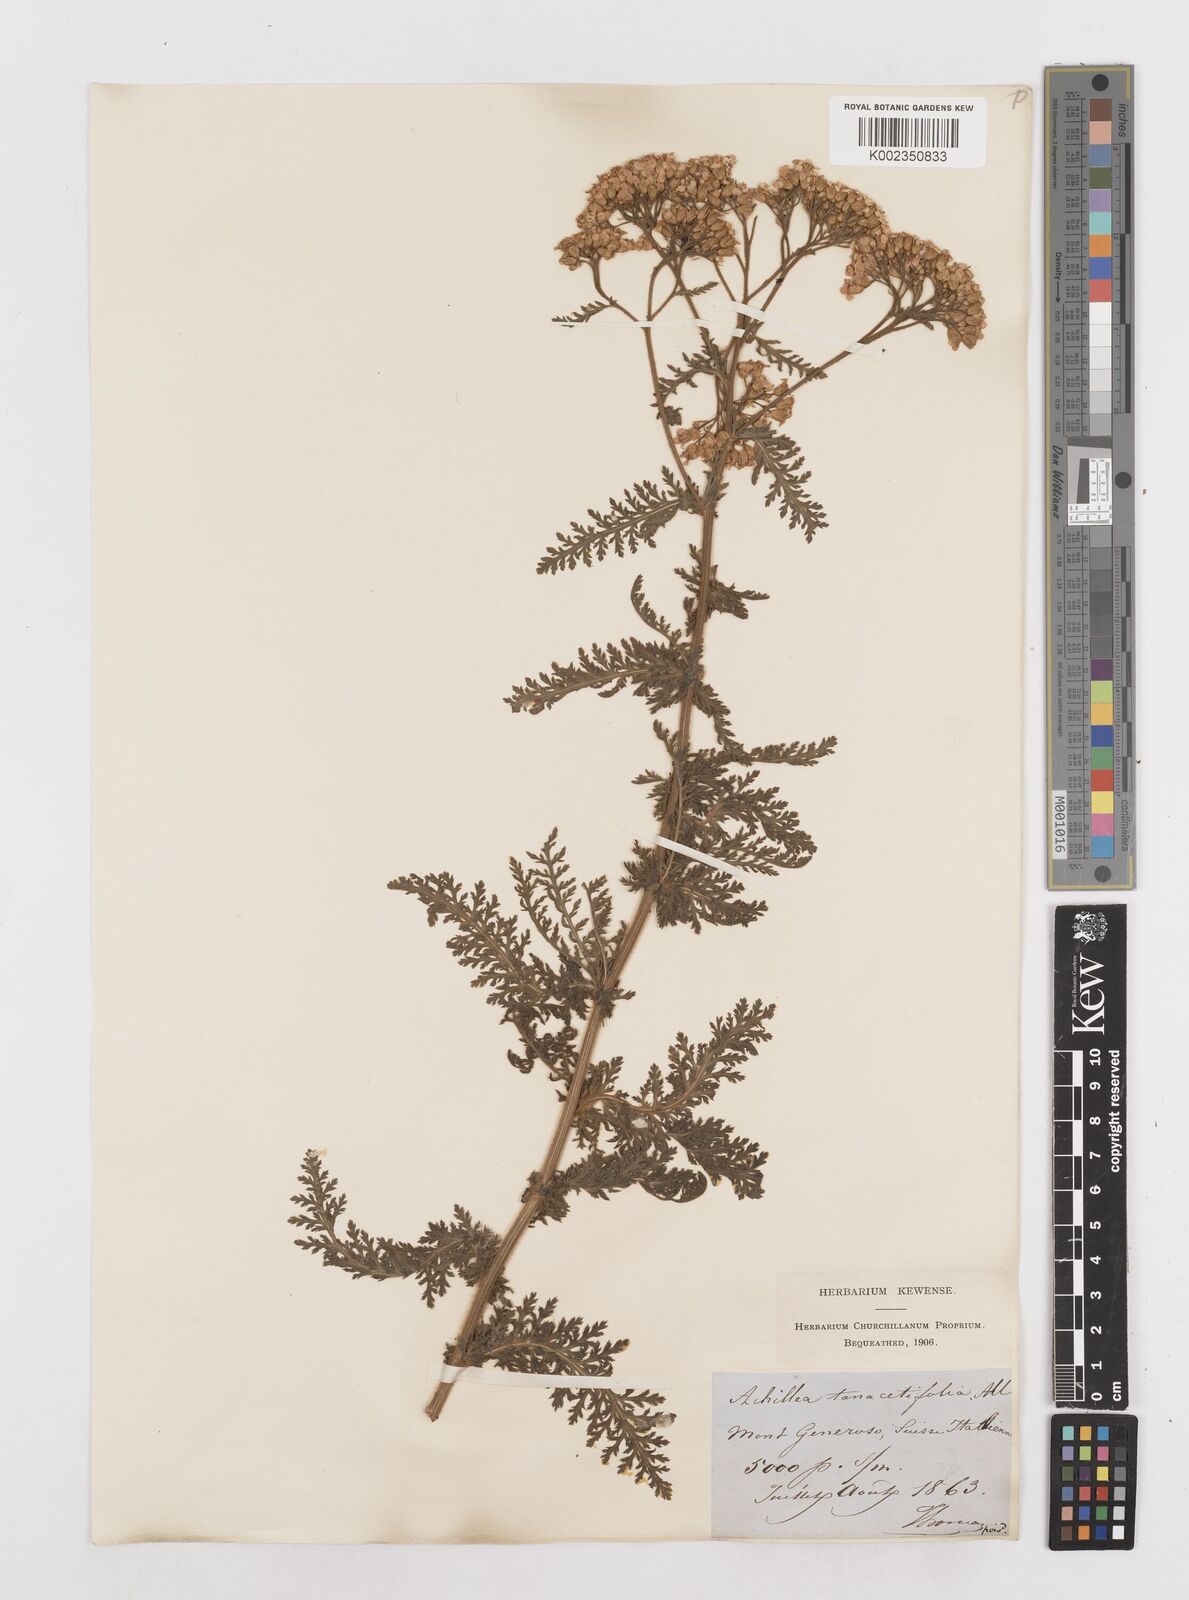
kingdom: Plantae
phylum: Tracheophyta
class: Magnoliopsida
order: Asterales
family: Asteraceae
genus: Achillea
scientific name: Achillea distans
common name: Tall yarrow
